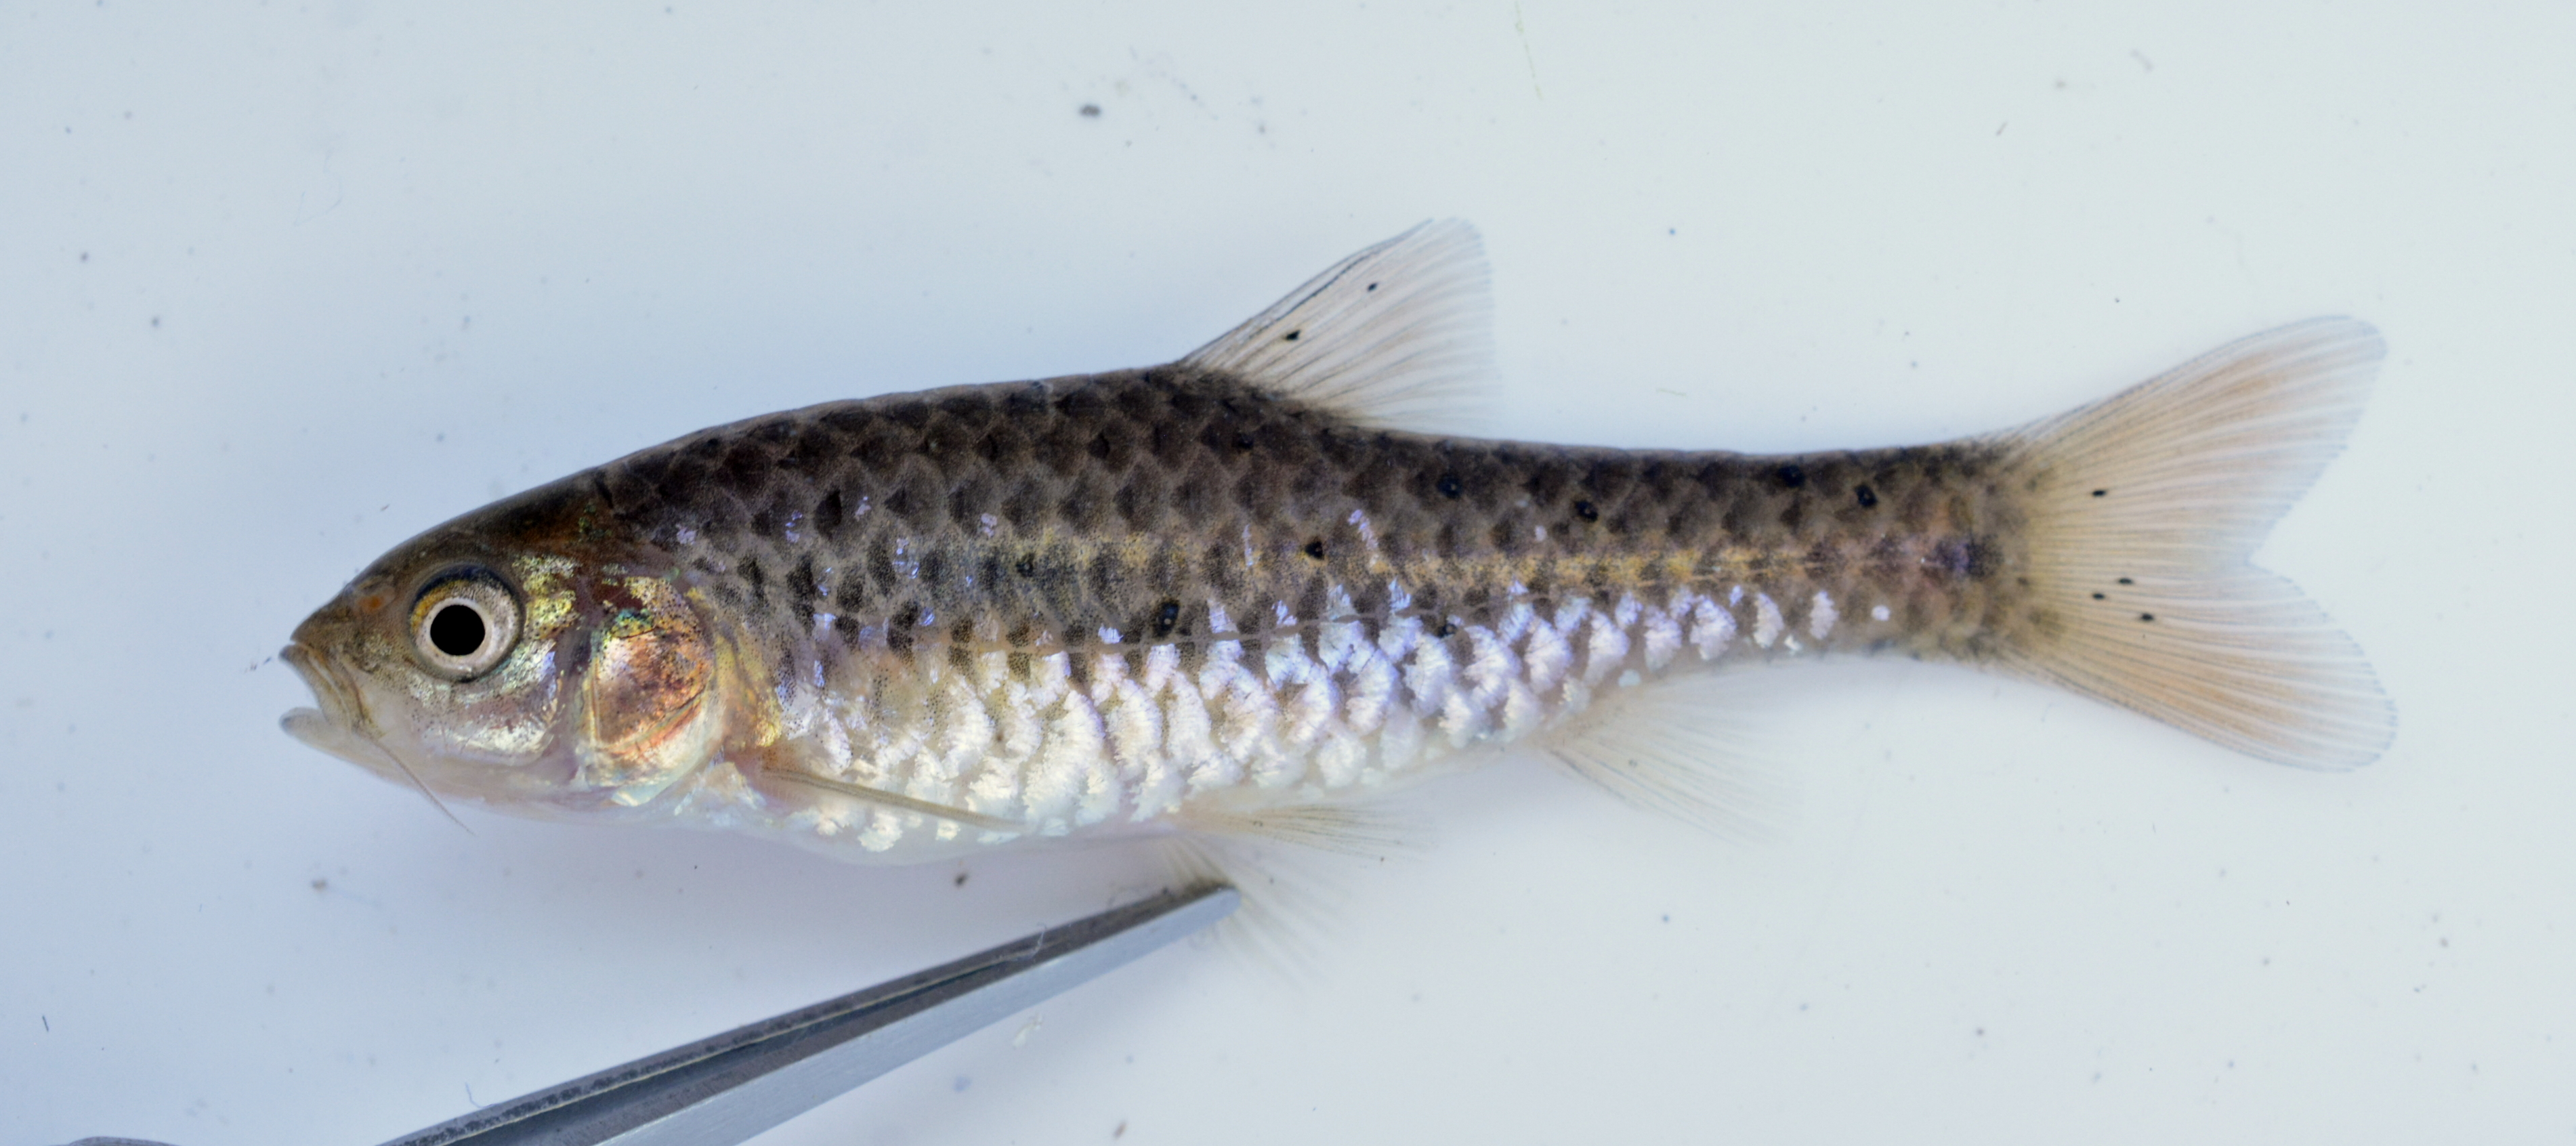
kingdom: Animalia
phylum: Chordata
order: Cypriniformes
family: Cyprinidae
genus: Enteromius
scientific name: Enteromius evansi
